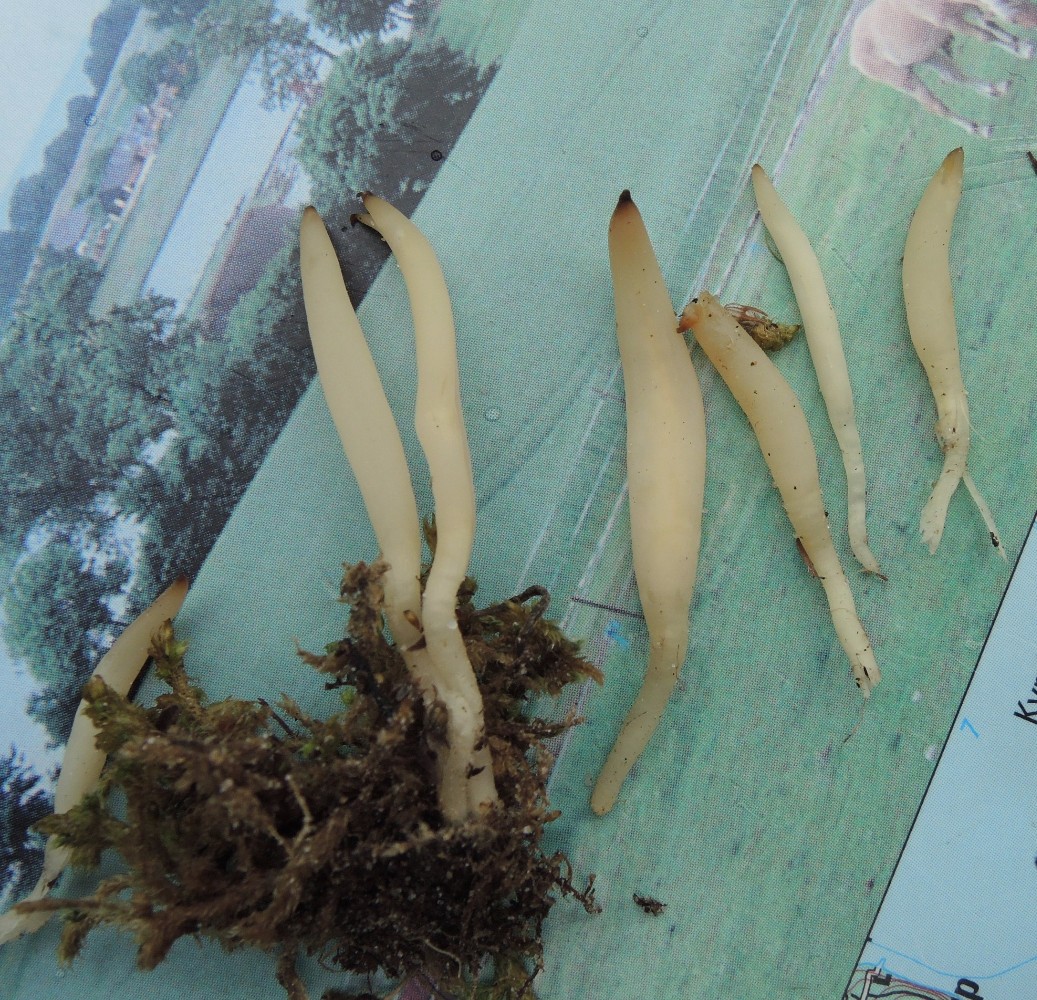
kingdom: Fungi
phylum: Basidiomycota
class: Agaricomycetes
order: Agaricales
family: Clavariaceae
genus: Clavaria
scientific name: Clavaria falcata
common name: hvid køllesvamp
